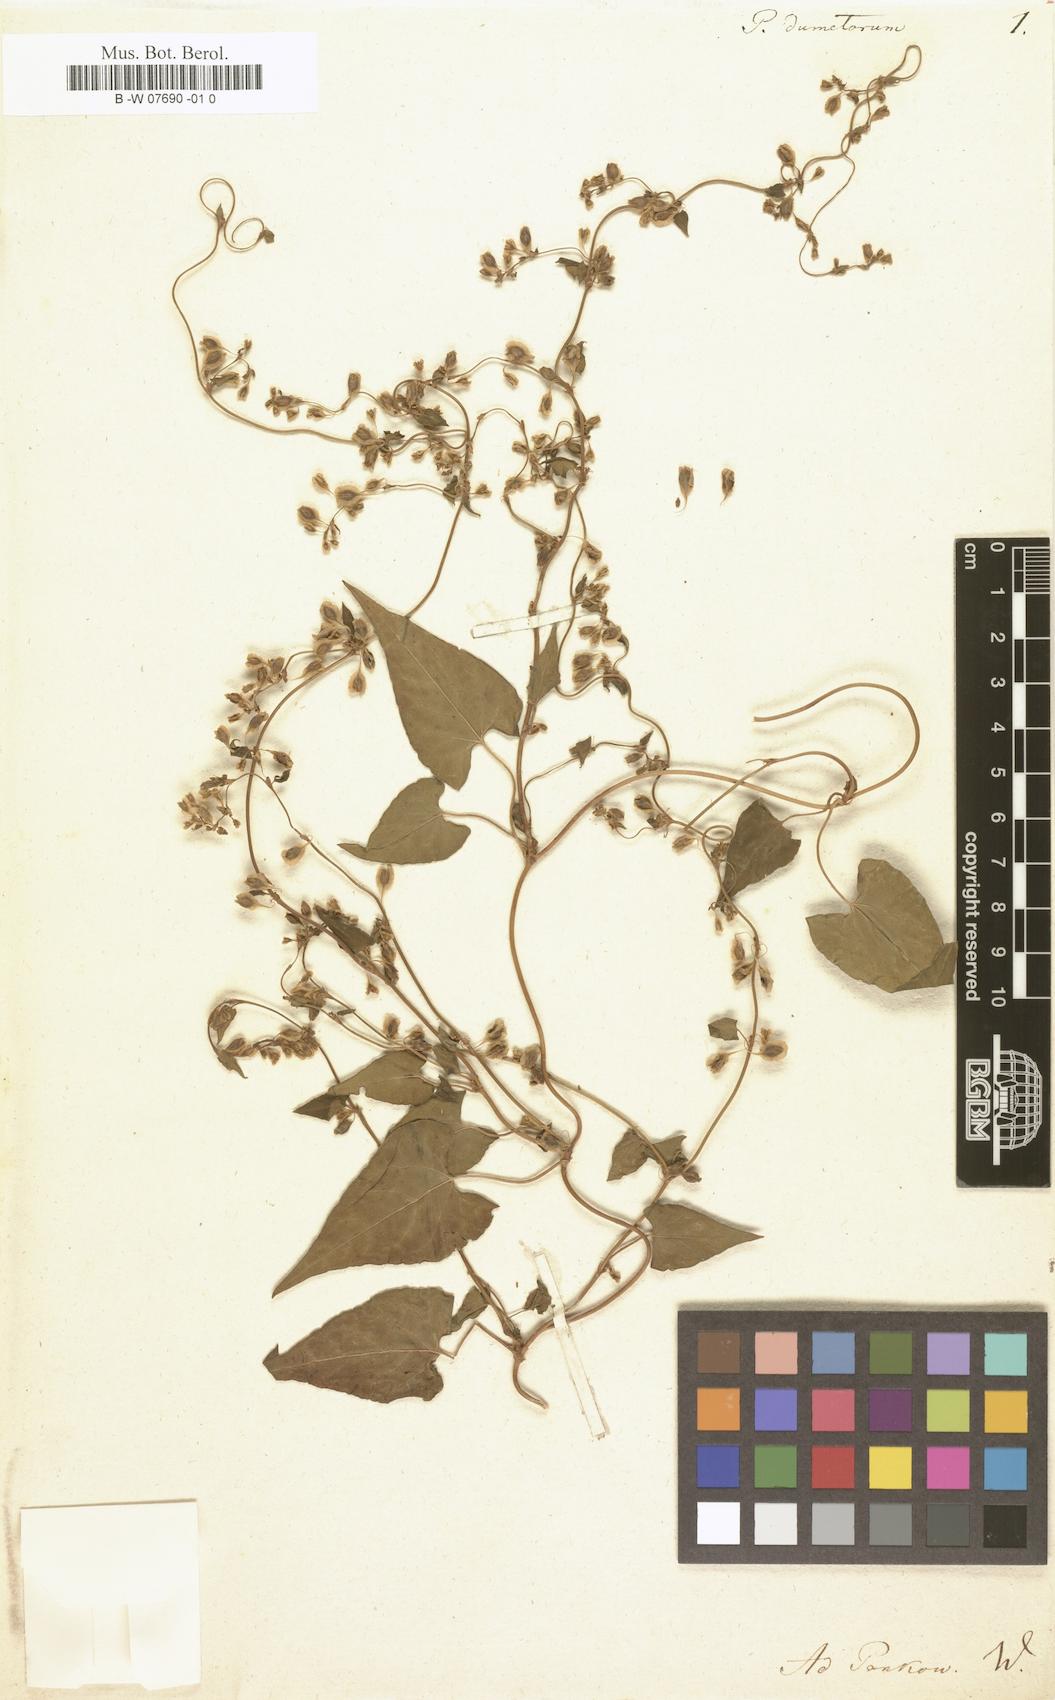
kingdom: Plantae
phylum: Tracheophyta
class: Magnoliopsida
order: Caryophyllales
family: Polygonaceae
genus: Fallopia
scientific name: Fallopia dumetorum
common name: Copse-bindweed
